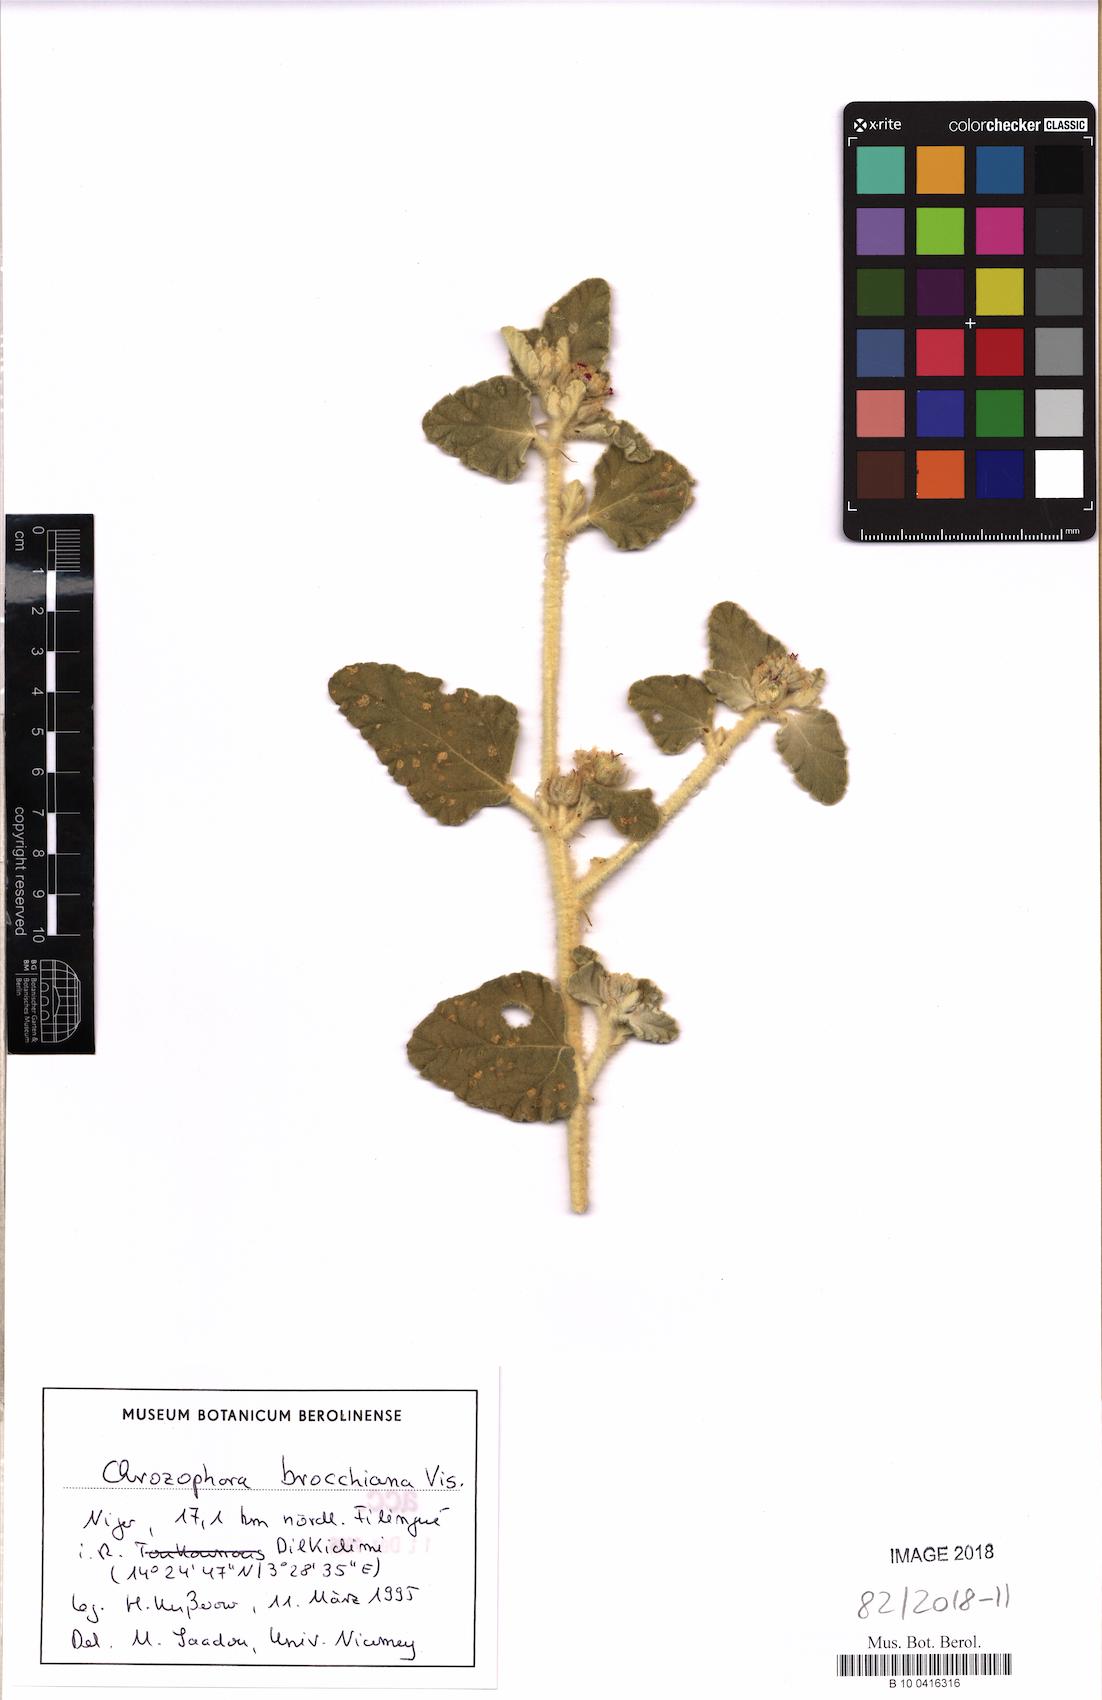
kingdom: Plantae
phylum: Tracheophyta
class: Magnoliopsida
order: Malpighiales
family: Euphorbiaceae
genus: Chrozophora
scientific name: Chrozophora brocchiana
